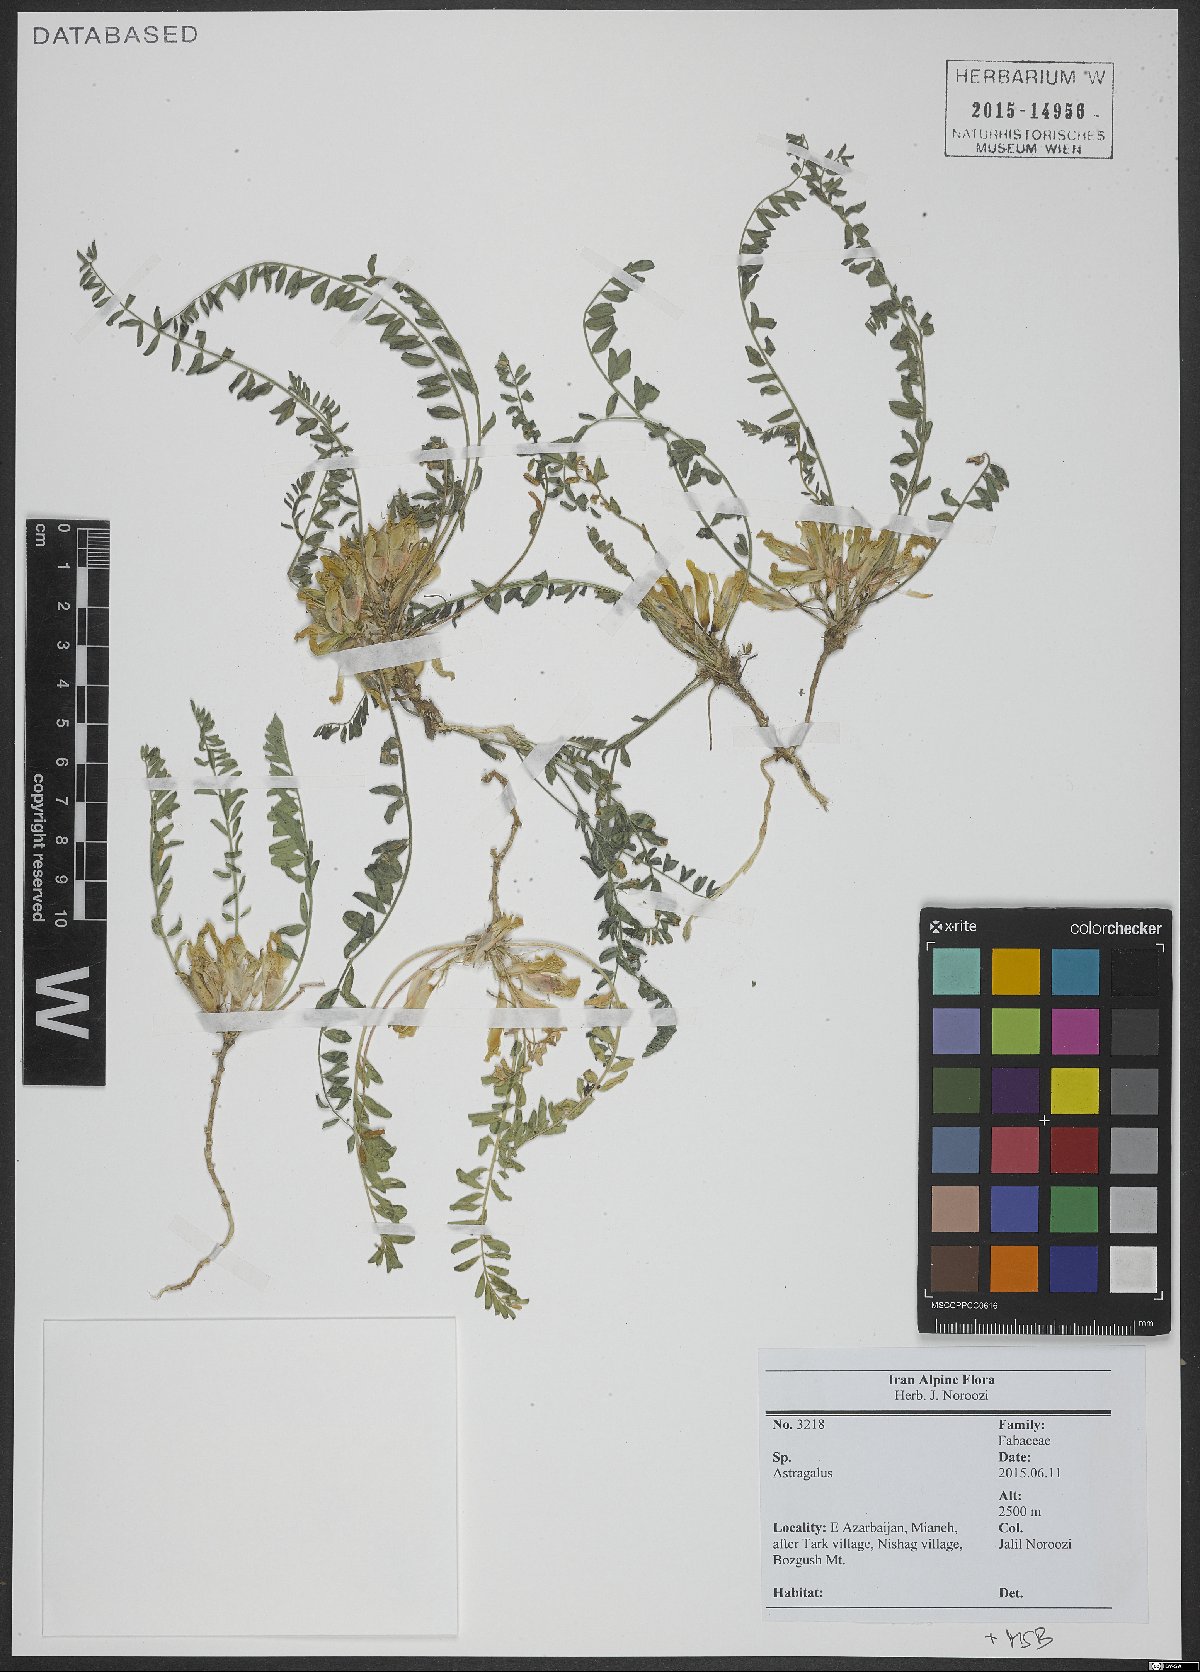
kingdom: Plantae
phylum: Tracheophyta
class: Magnoliopsida
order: Fabales
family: Fabaceae
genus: Astragalus
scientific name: Astragalus
